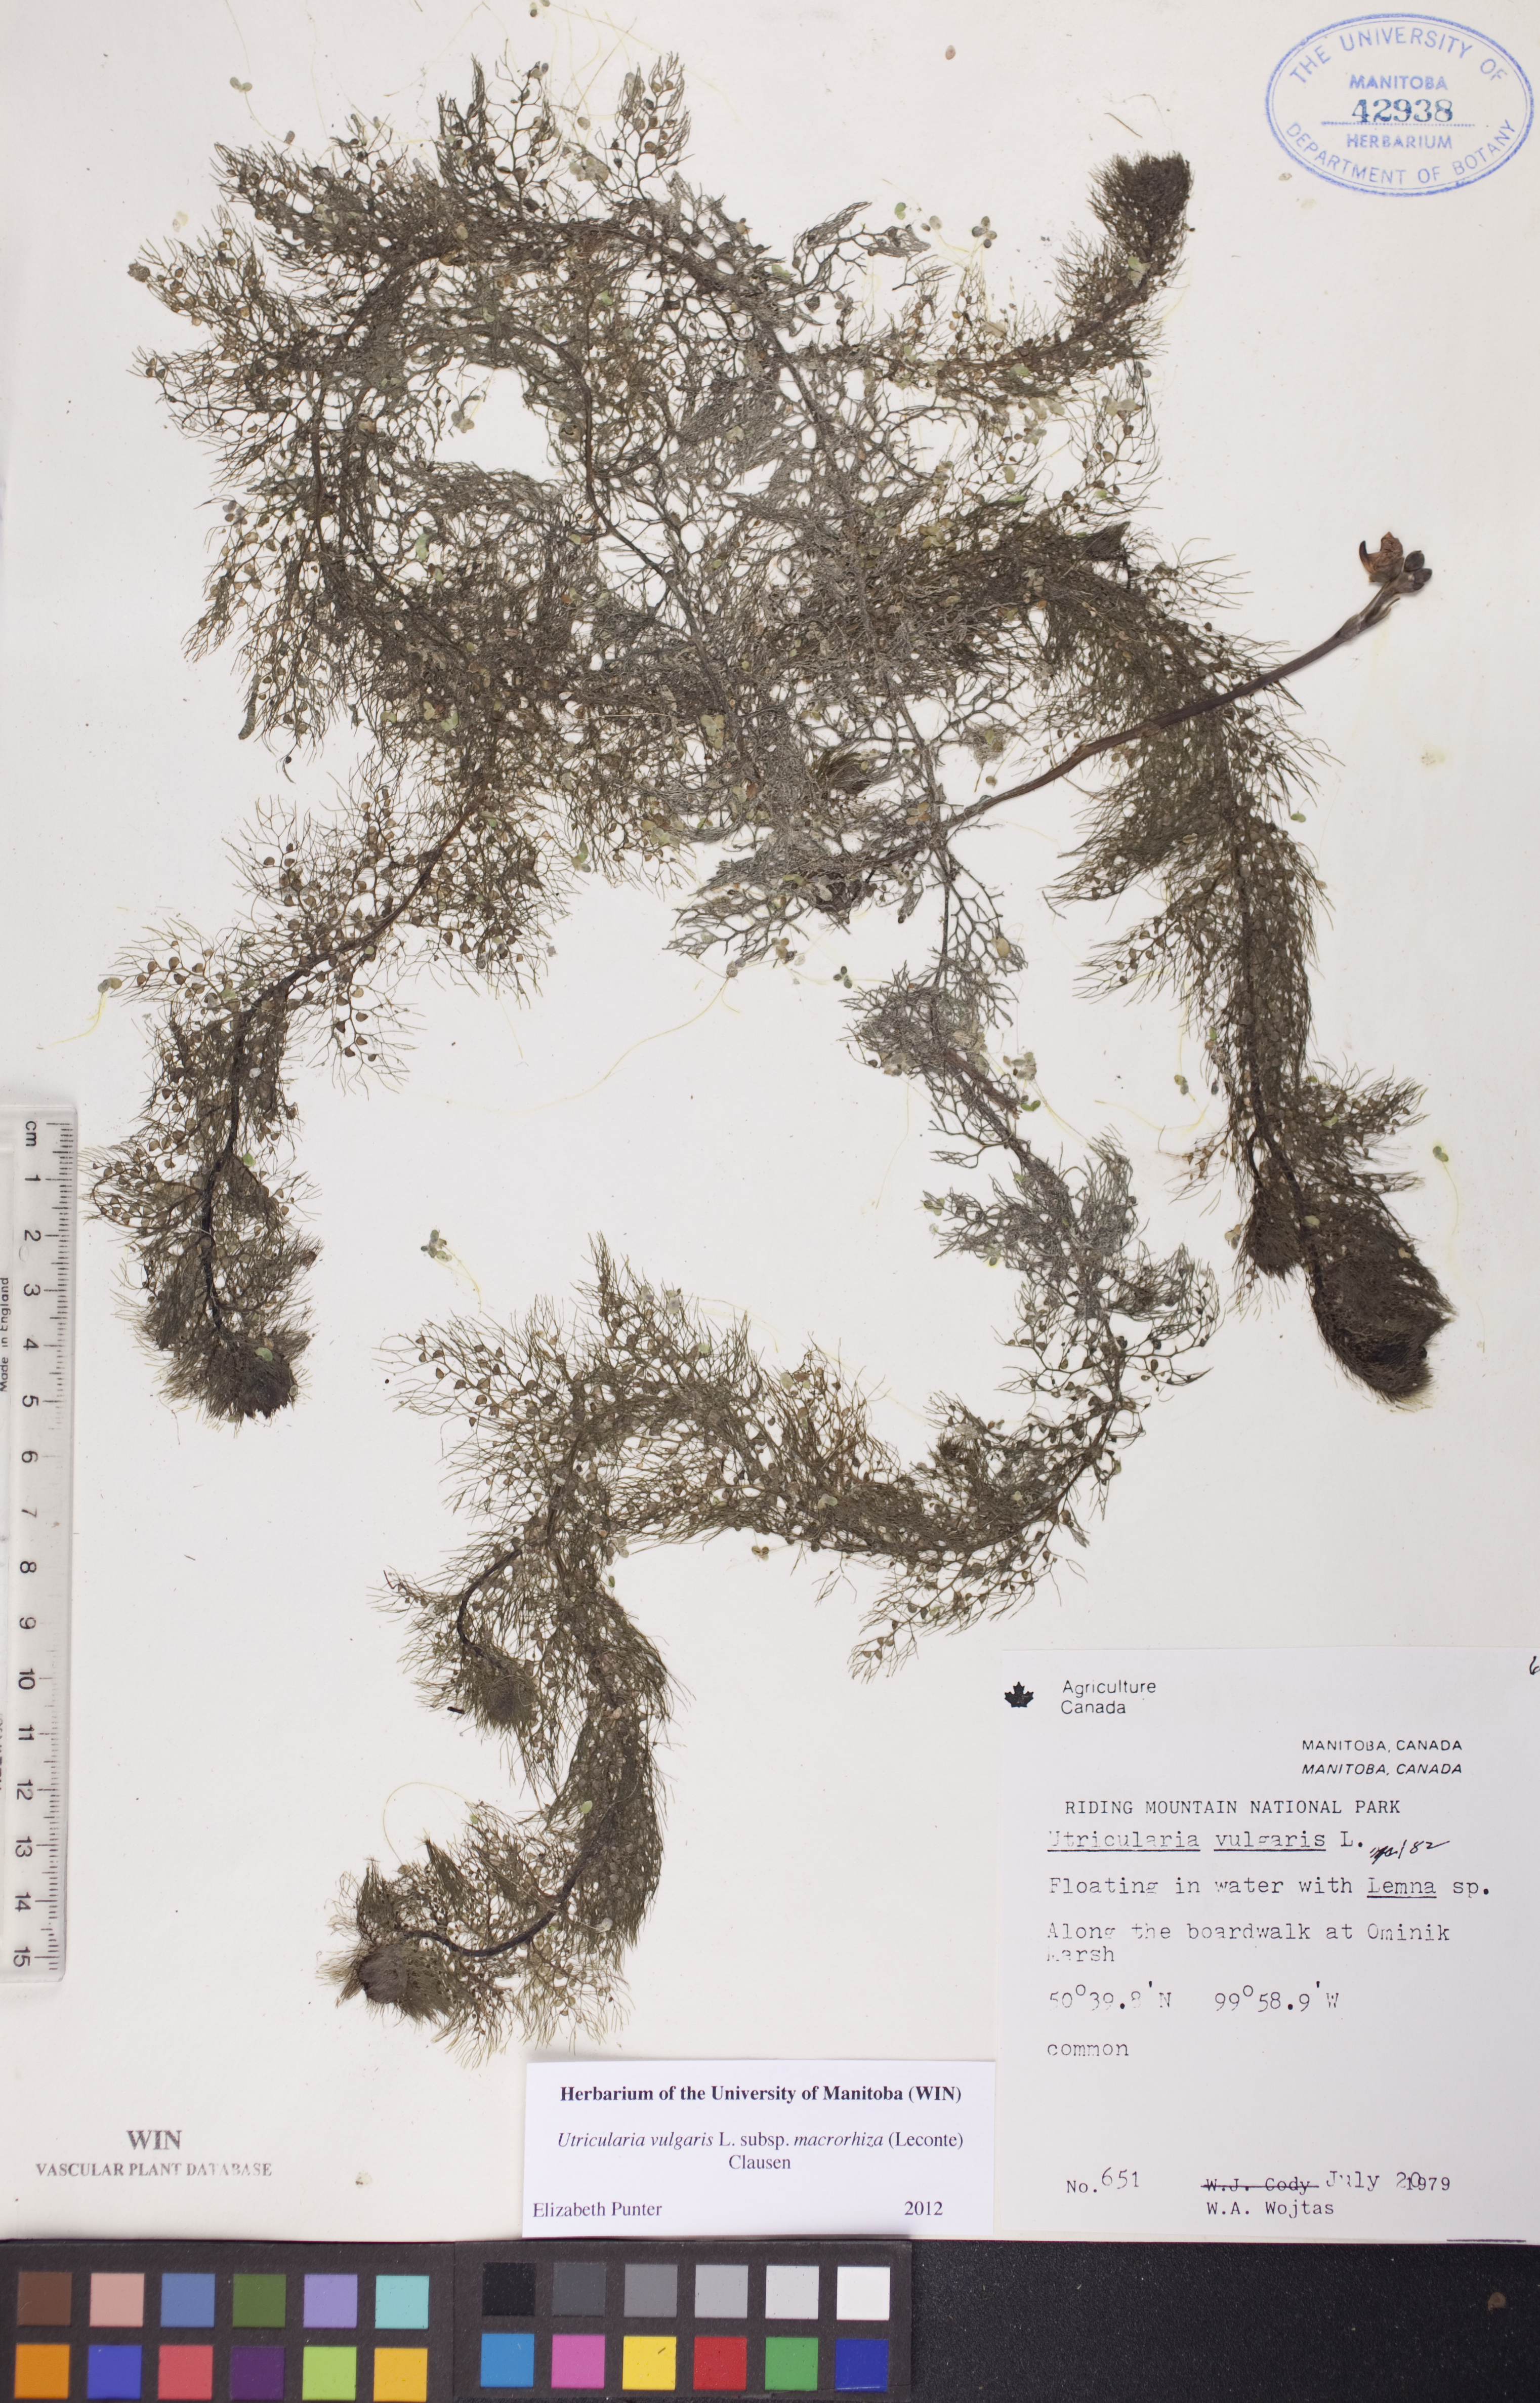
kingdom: Plantae
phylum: Tracheophyta
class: Magnoliopsida
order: Lamiales
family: Lentibulariaceae
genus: Utricularia
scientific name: Utricularia macrorhiza
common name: Common bladderwort
